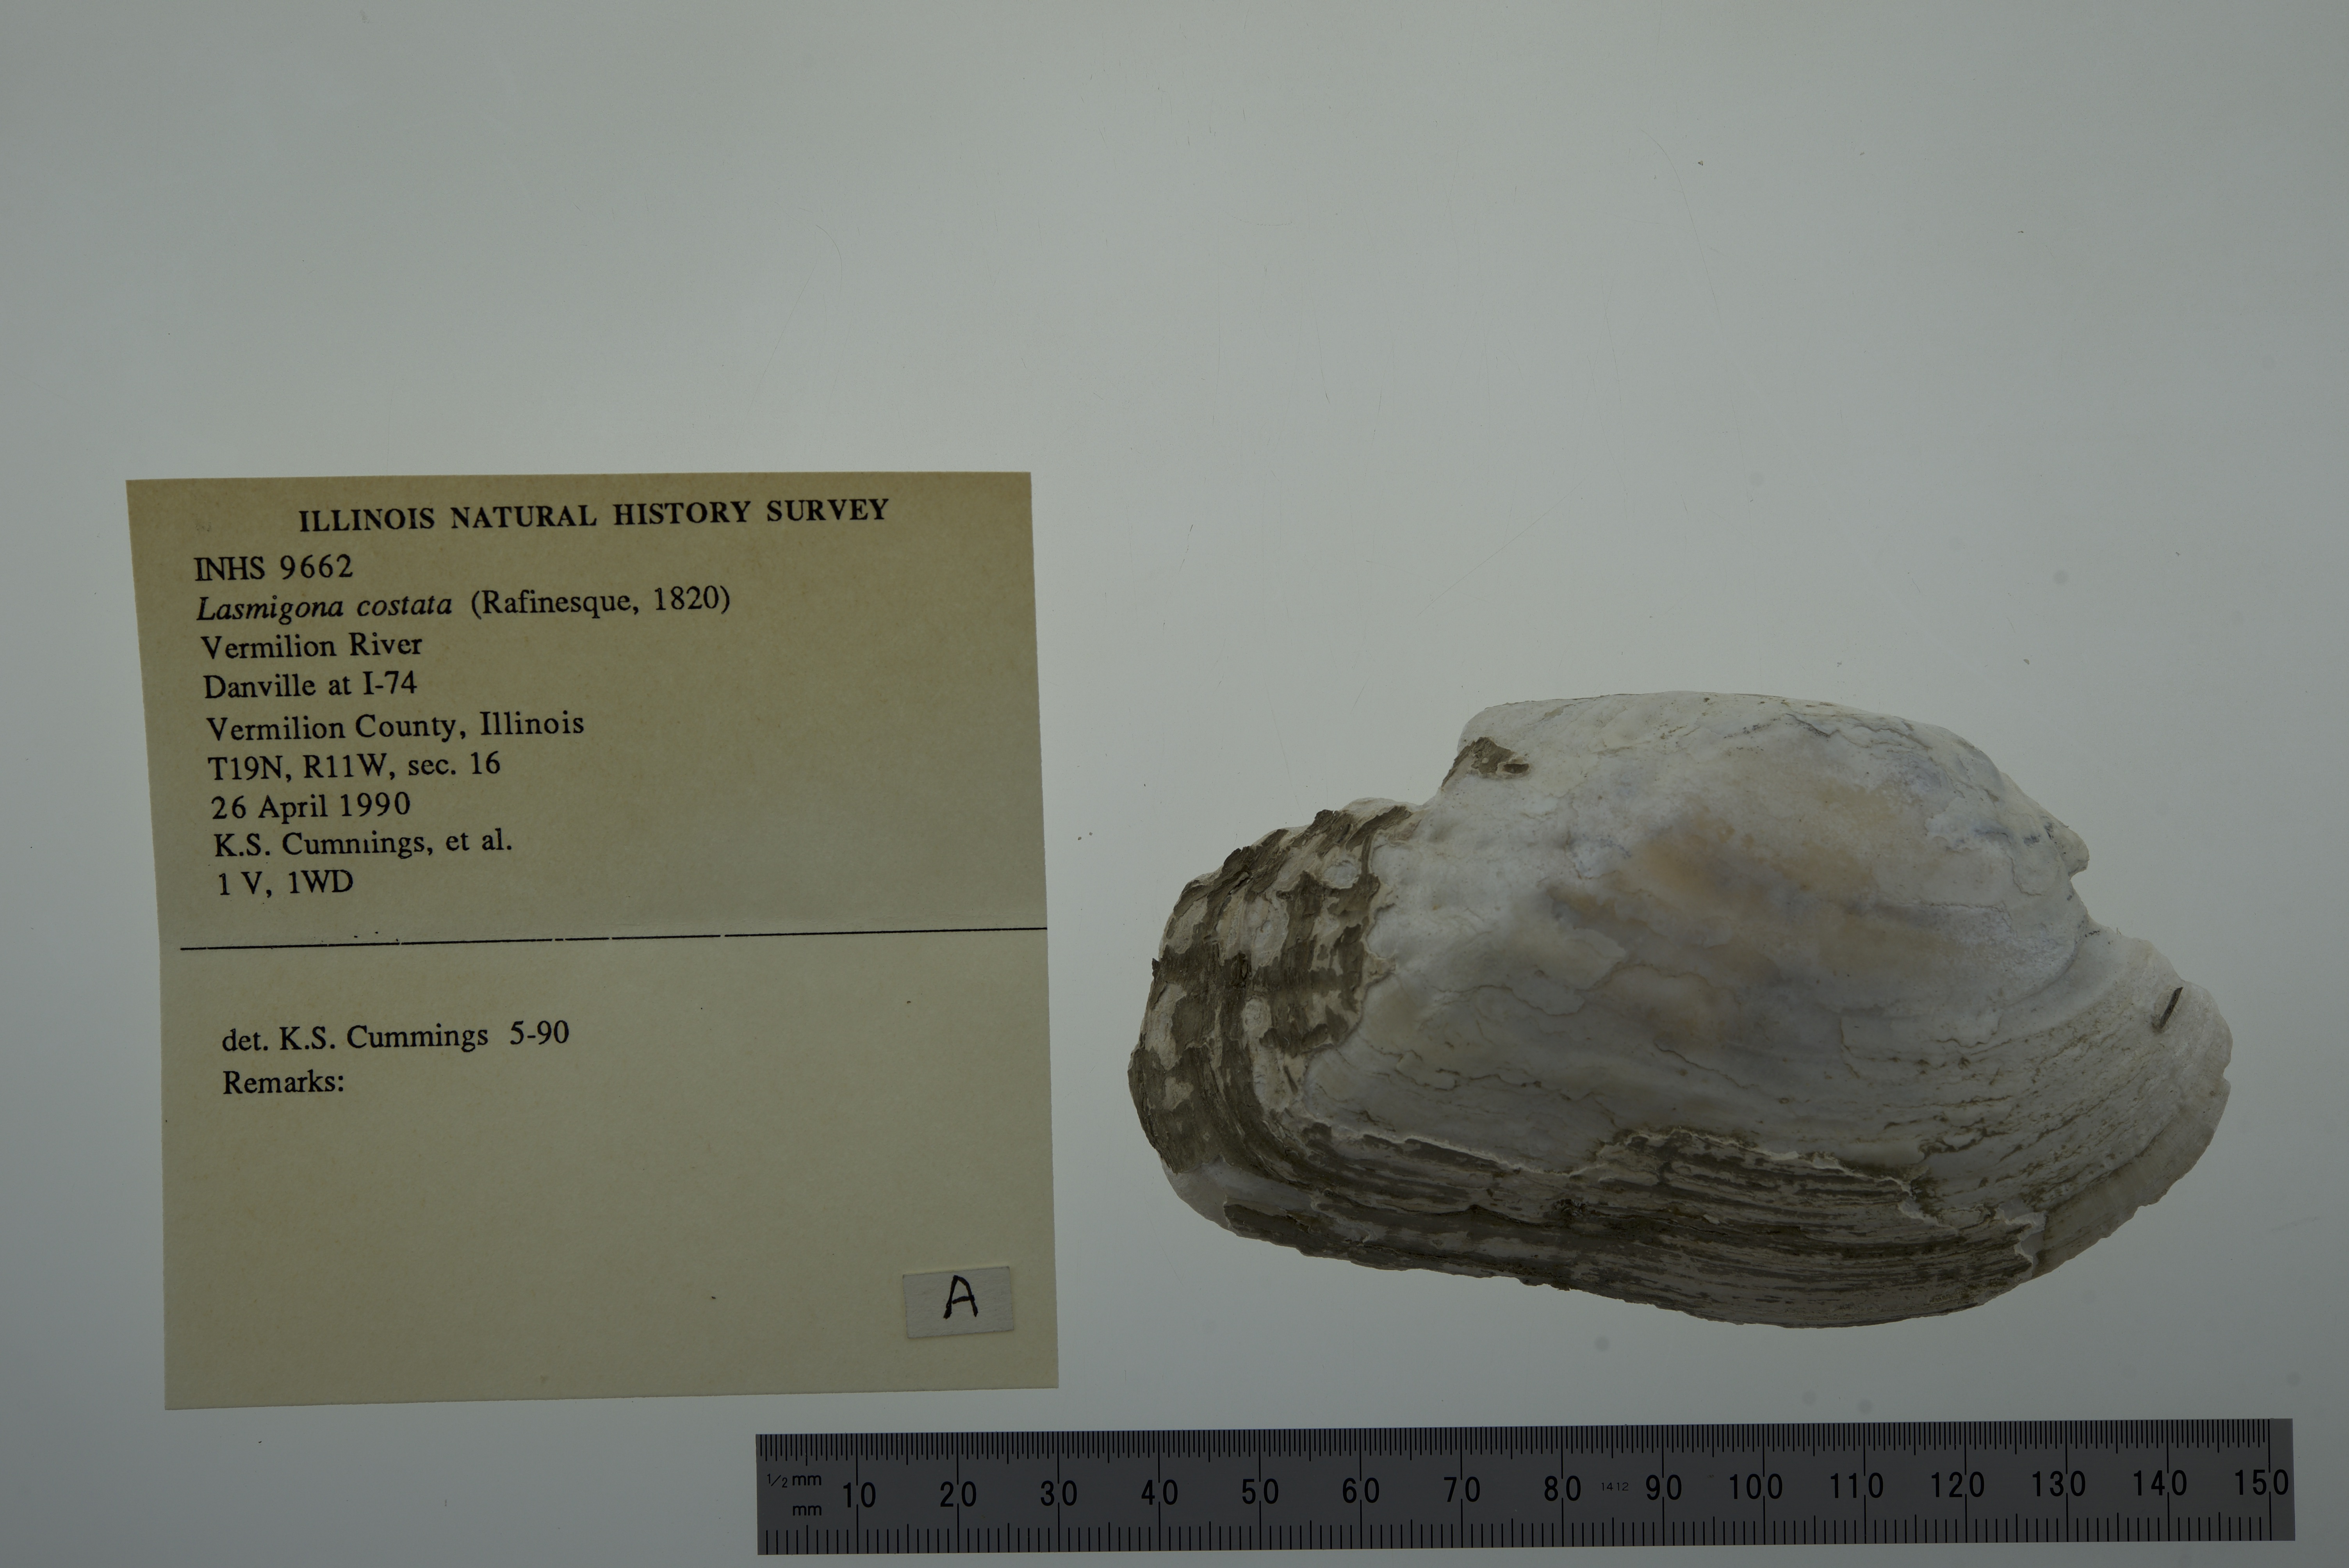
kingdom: Animalia
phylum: Mollusca
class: Bivalvia
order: Unionida
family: Unionidae
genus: Lasmigona
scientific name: Lasmigona costata
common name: Flutedshell
